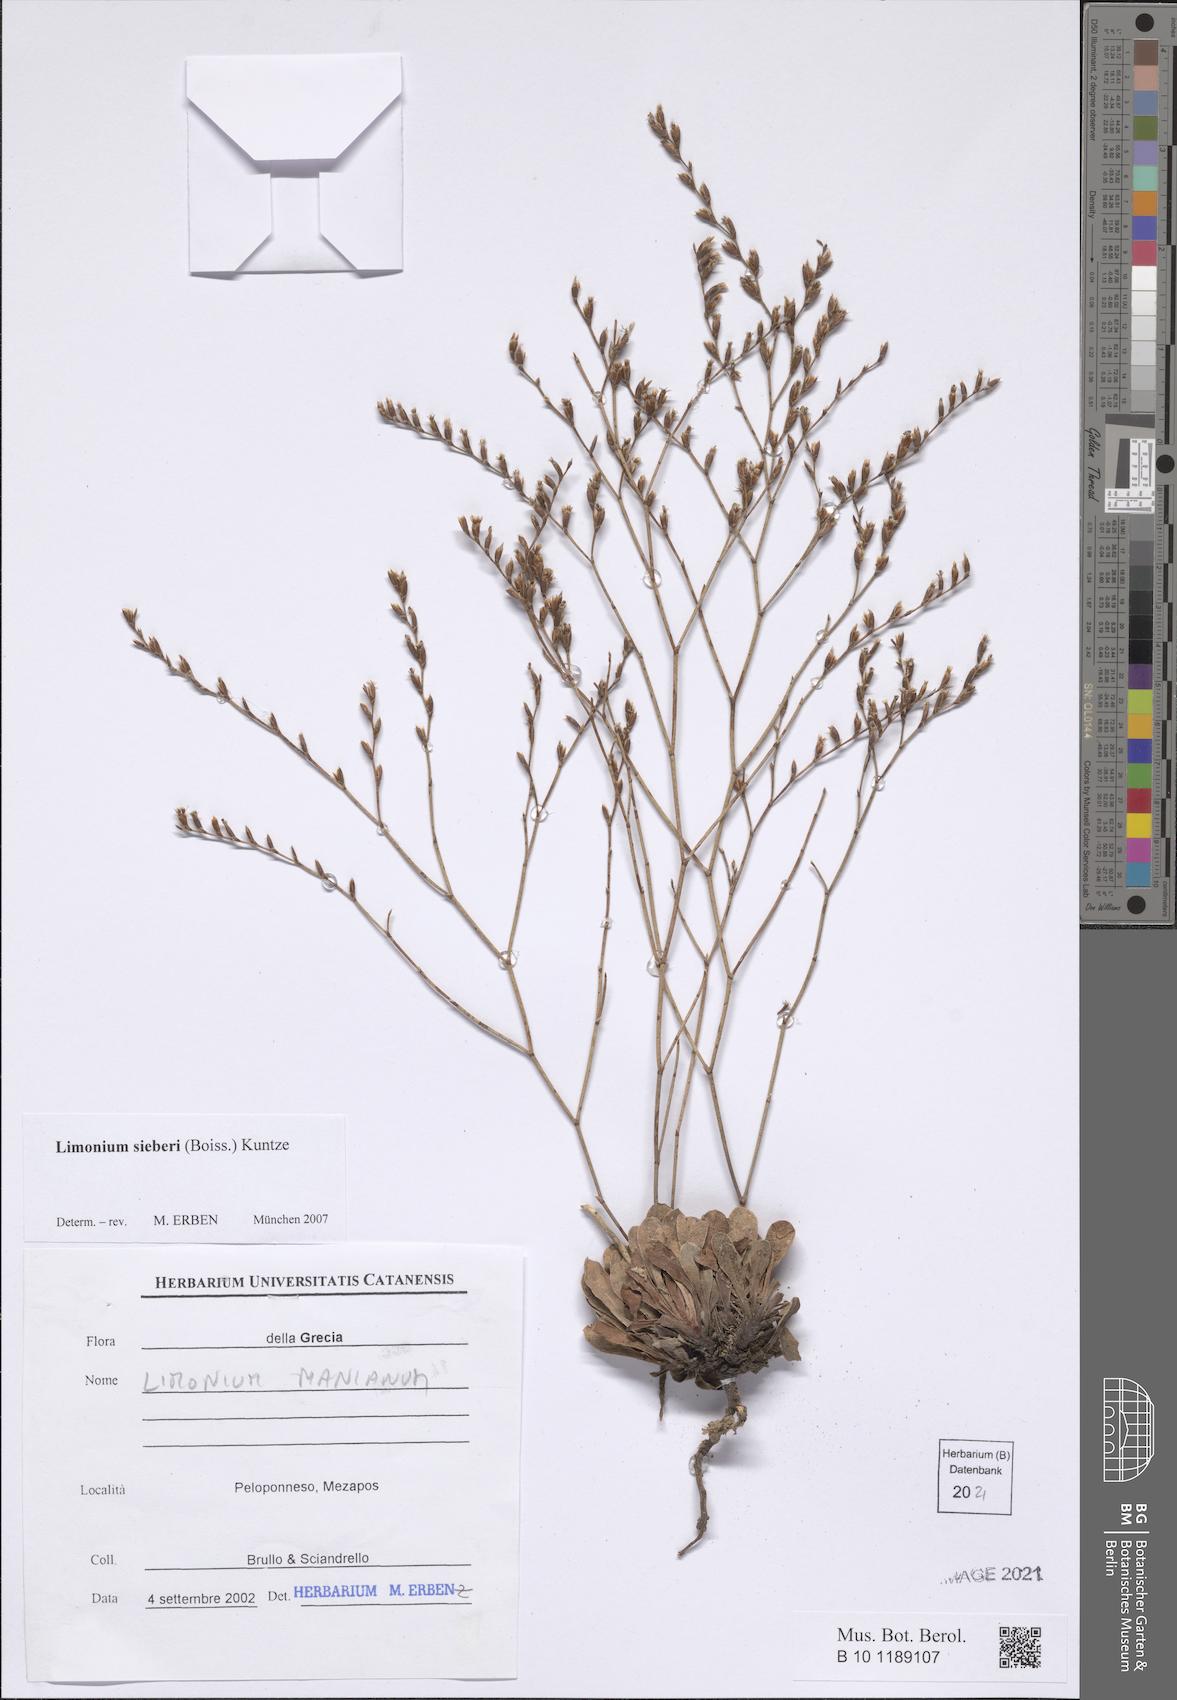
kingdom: Plantae
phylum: Tracheophyta
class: Magnoliopsida
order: Caryophyllales
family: Plumbaginaceae
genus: Limonium
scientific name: Limonium sieberi
